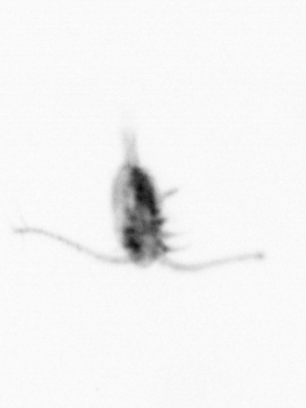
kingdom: Animalia
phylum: Arthropoda
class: Copepoda
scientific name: Copepoda
